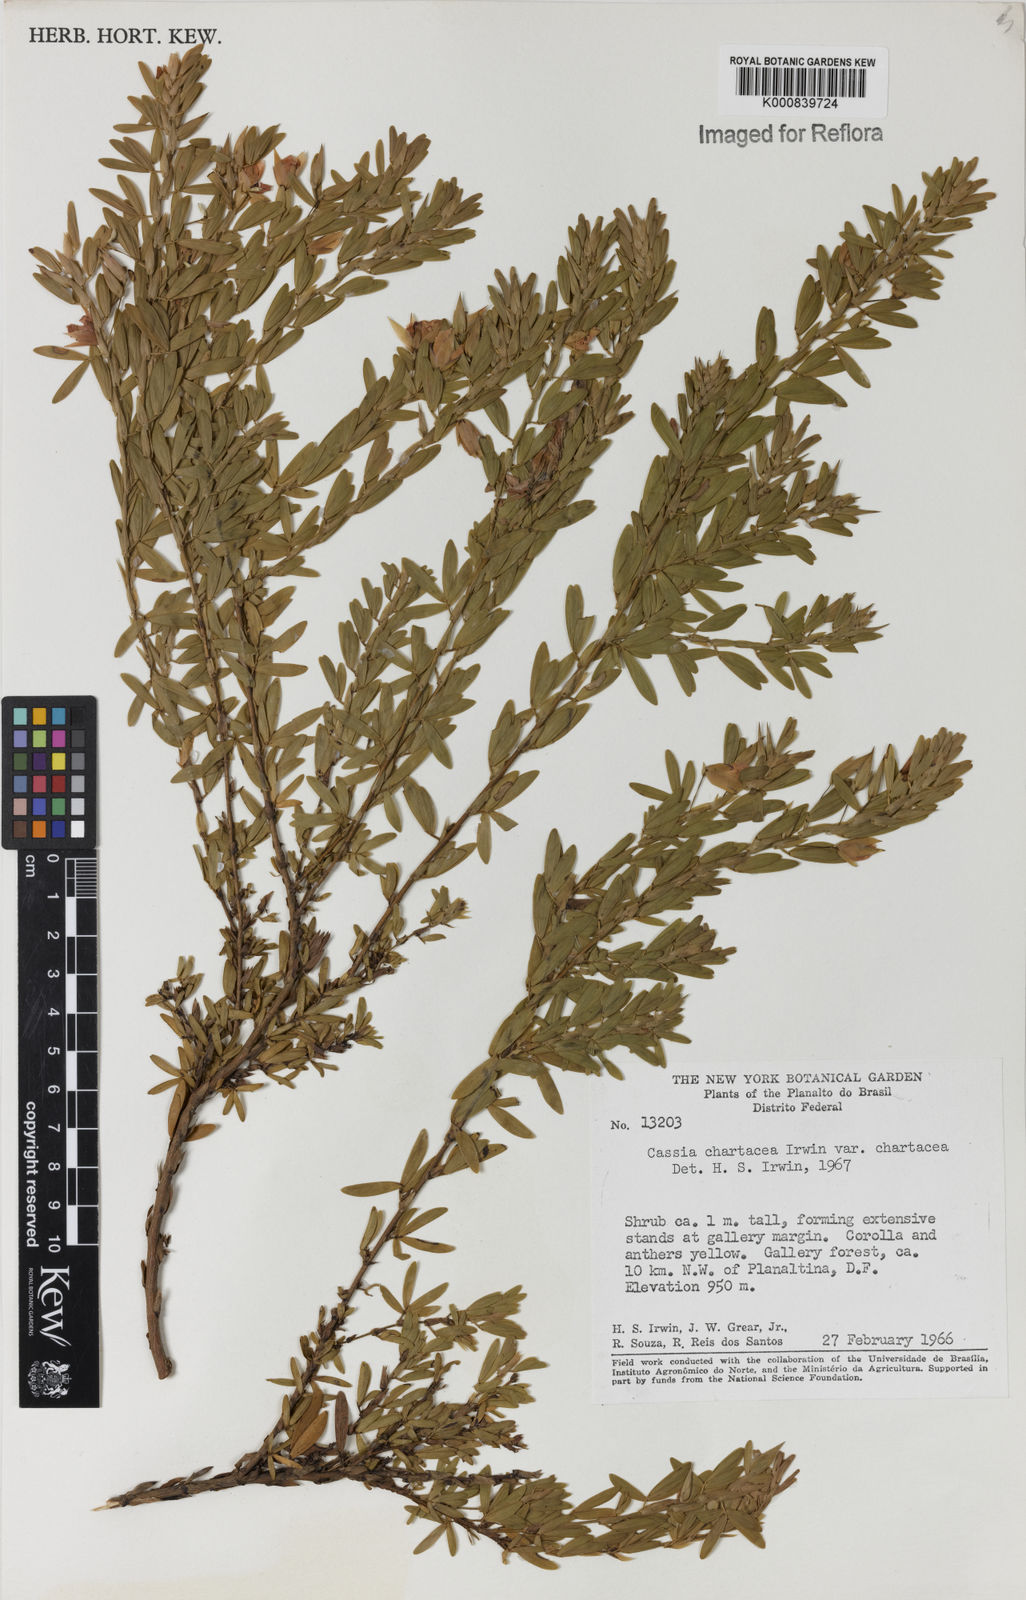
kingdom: Plantae
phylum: Tracheophyta
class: Magnoliopsida
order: Fabales
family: Fabaceae
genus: Chamaecrista
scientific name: Chamaecrista langsdorffii
